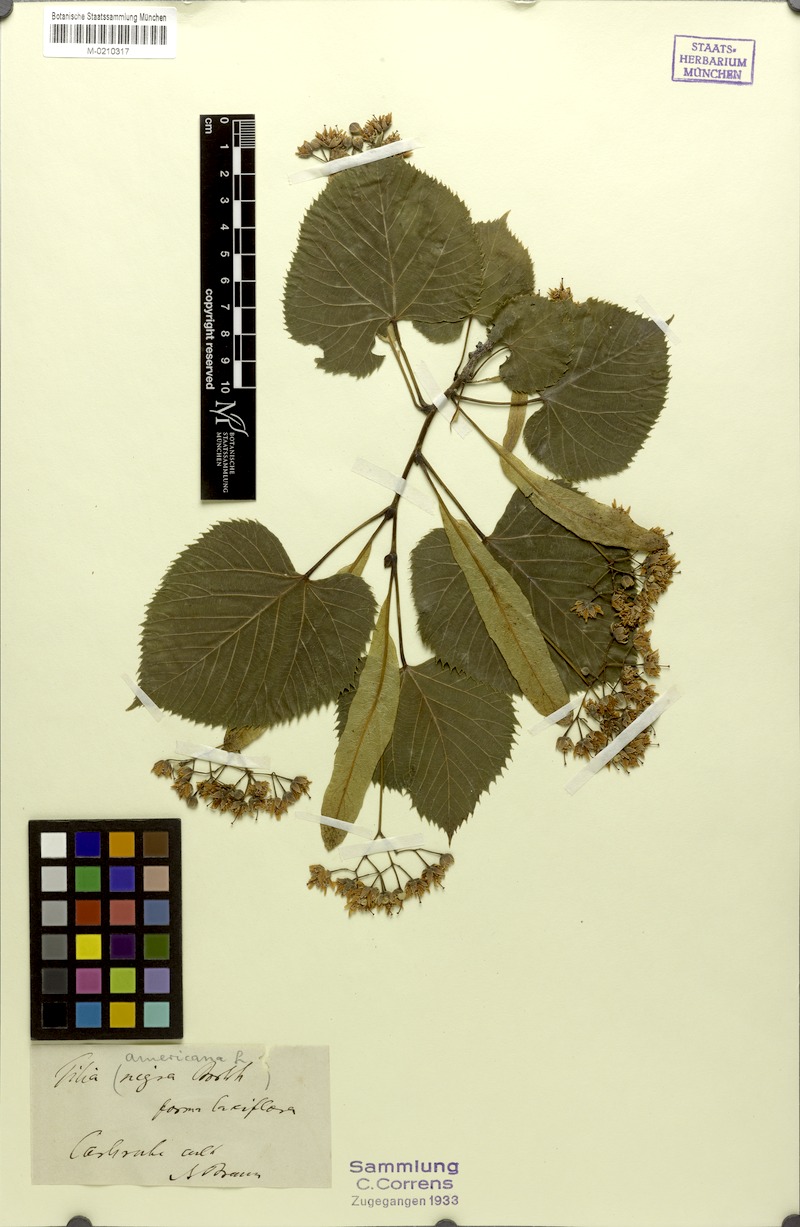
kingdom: Plantae
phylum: Tracheophyta
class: Magnoliopsida
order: Malvales
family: Malvaceae
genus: Tilia
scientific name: Tilia americana
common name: Basswood
